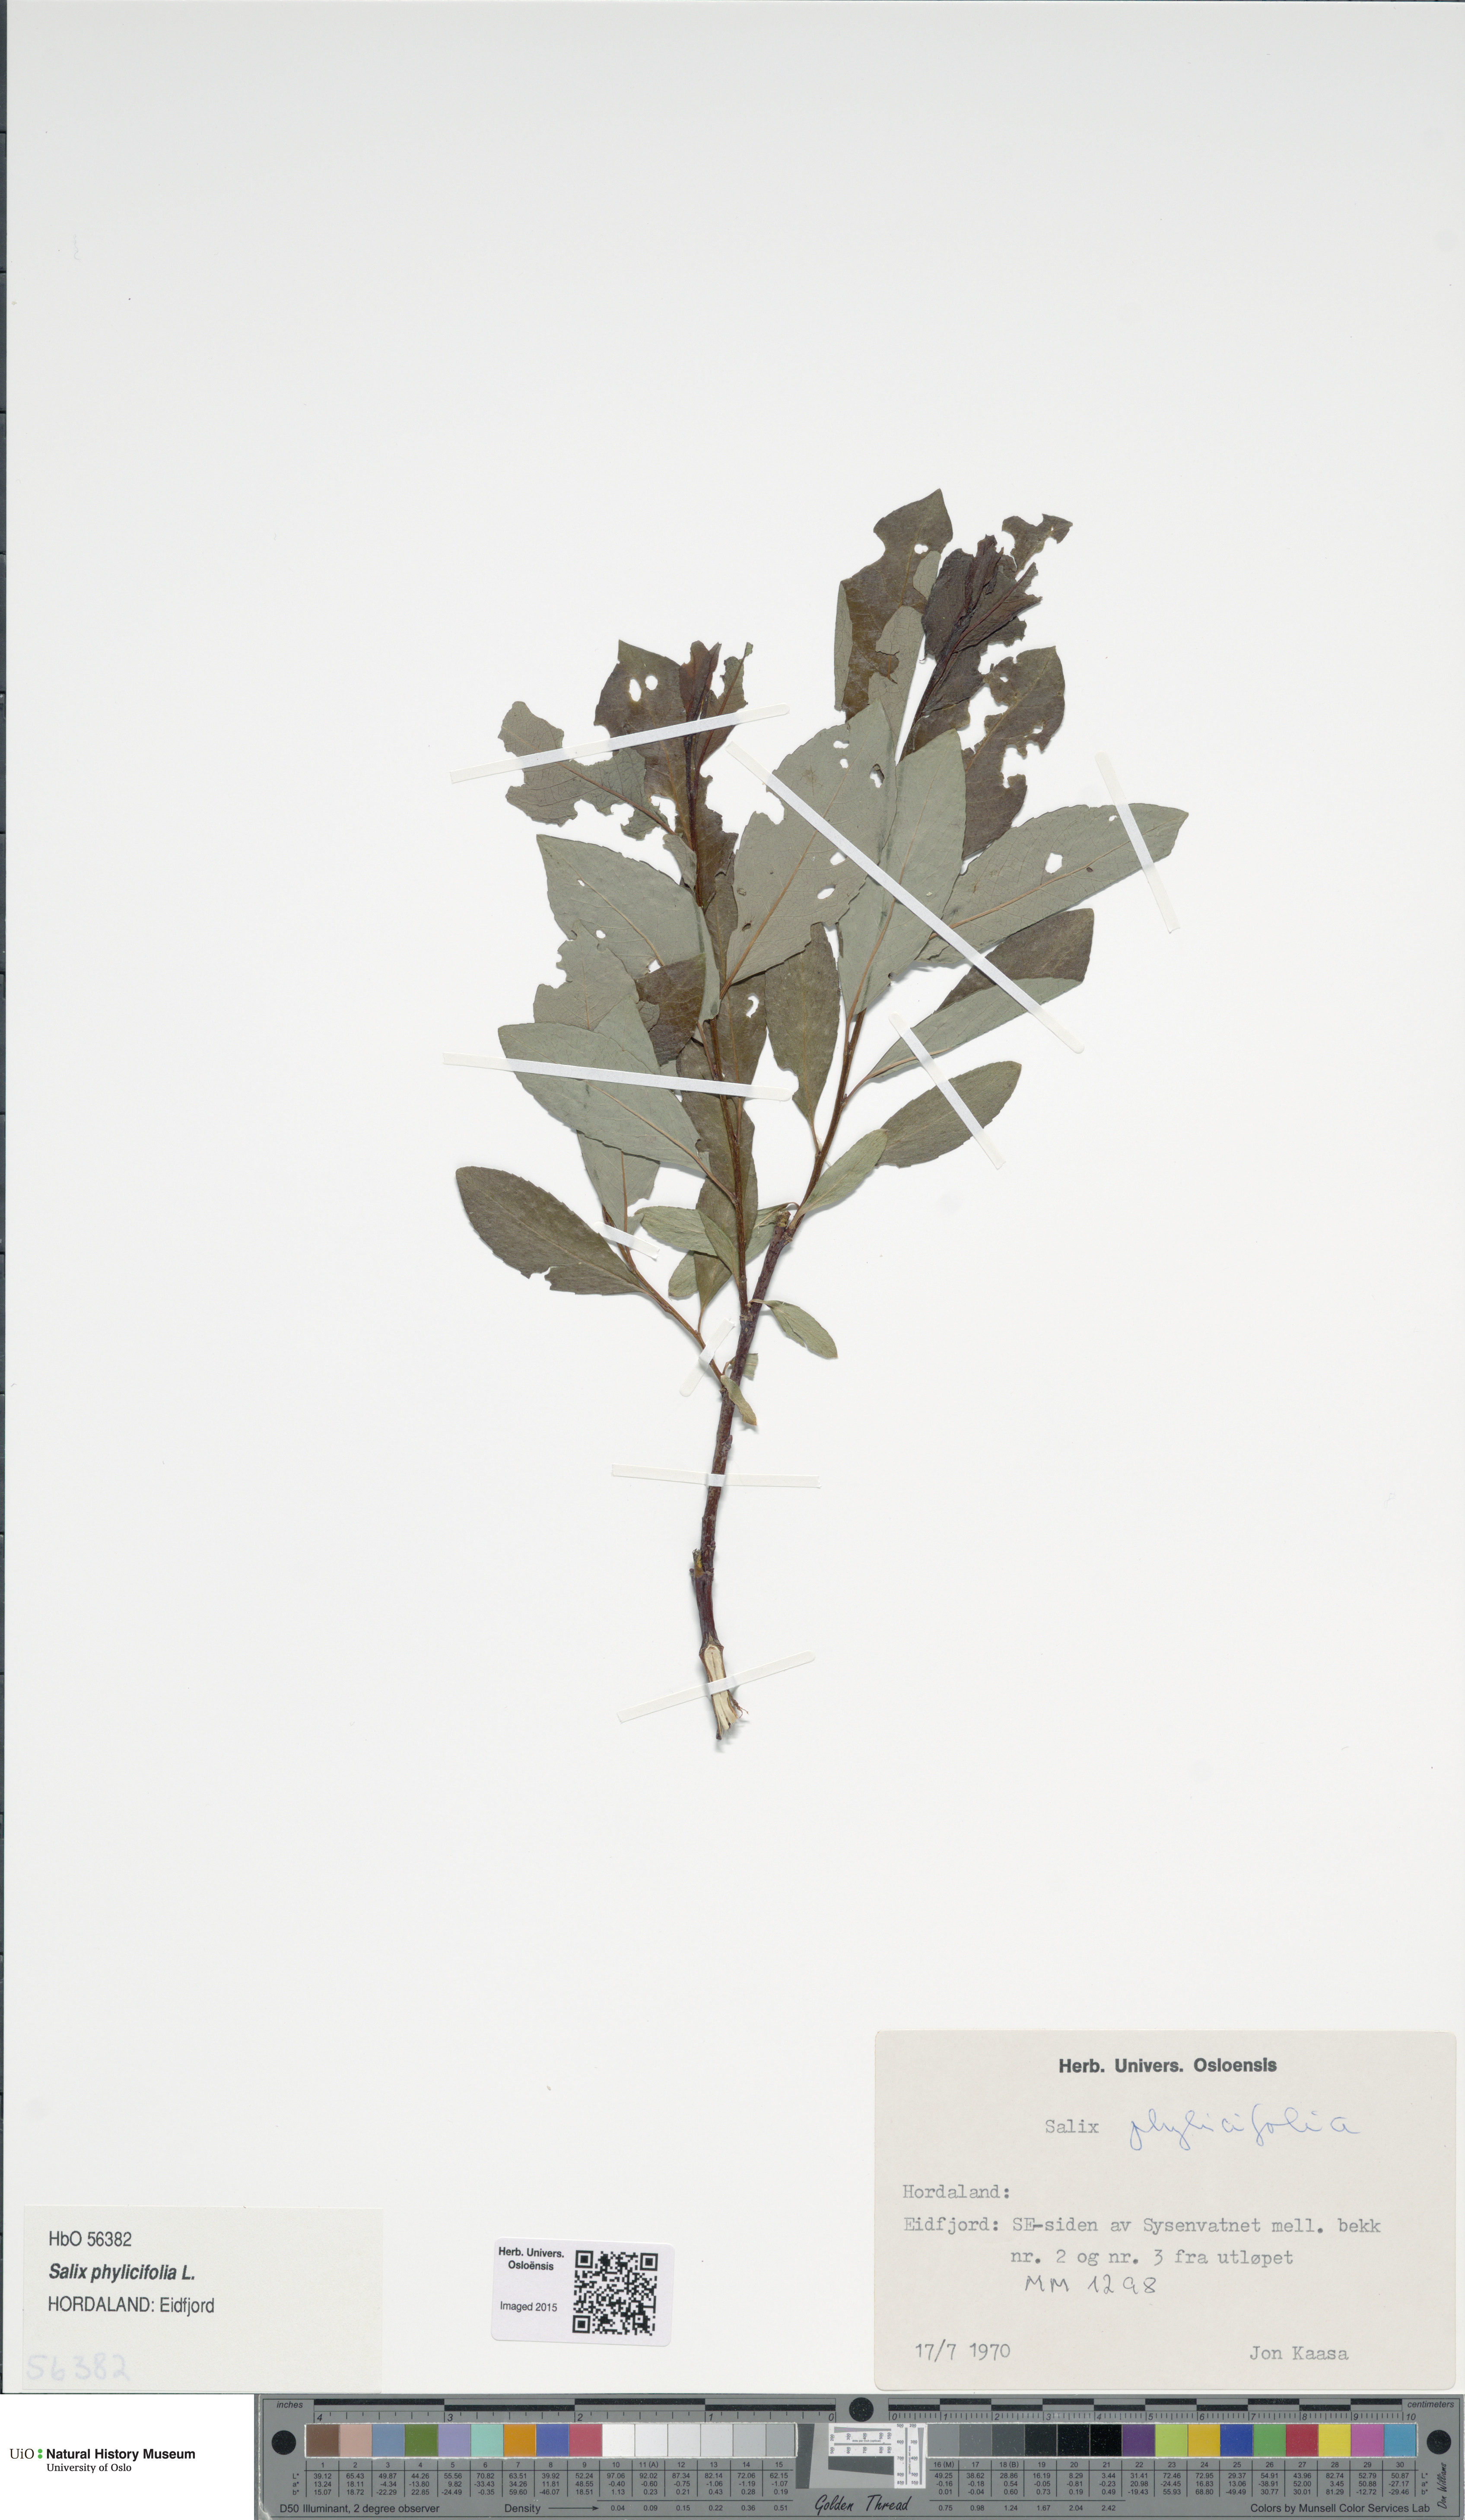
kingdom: Plantae
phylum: Tracheophyta
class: Magnoliopsida
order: Malpighiales
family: Salicaceae
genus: Salix
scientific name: Salix phylicifolia
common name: Tea-leaved willow
